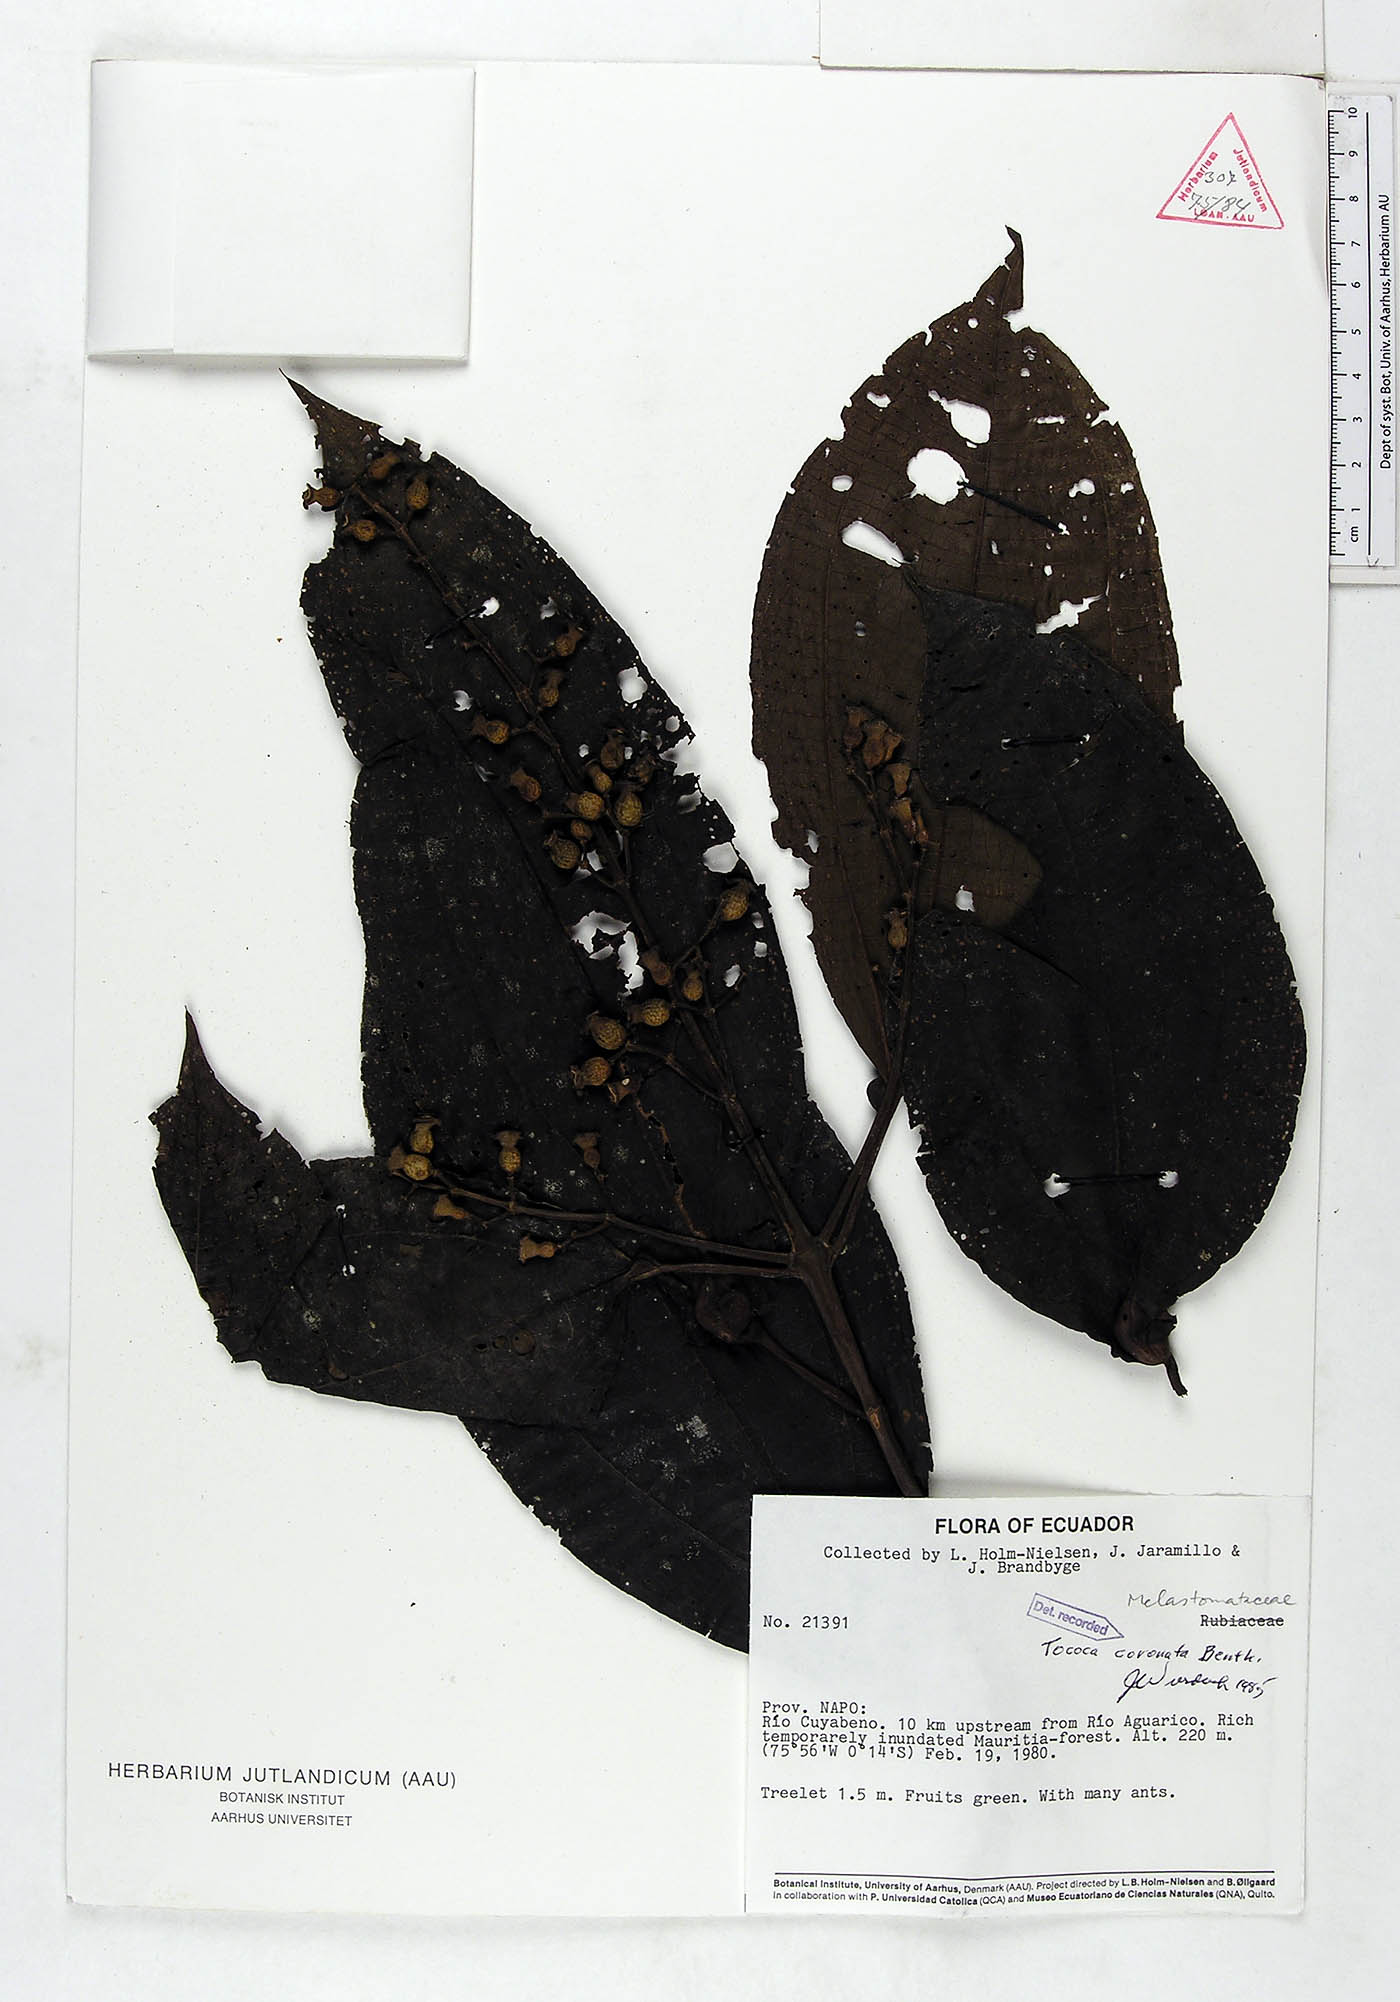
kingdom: Plantae
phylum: Tracheophyta
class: Magnoliopsida
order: Myrtales
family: Melastomataceae
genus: Miconia
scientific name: Miconia tococoronata
